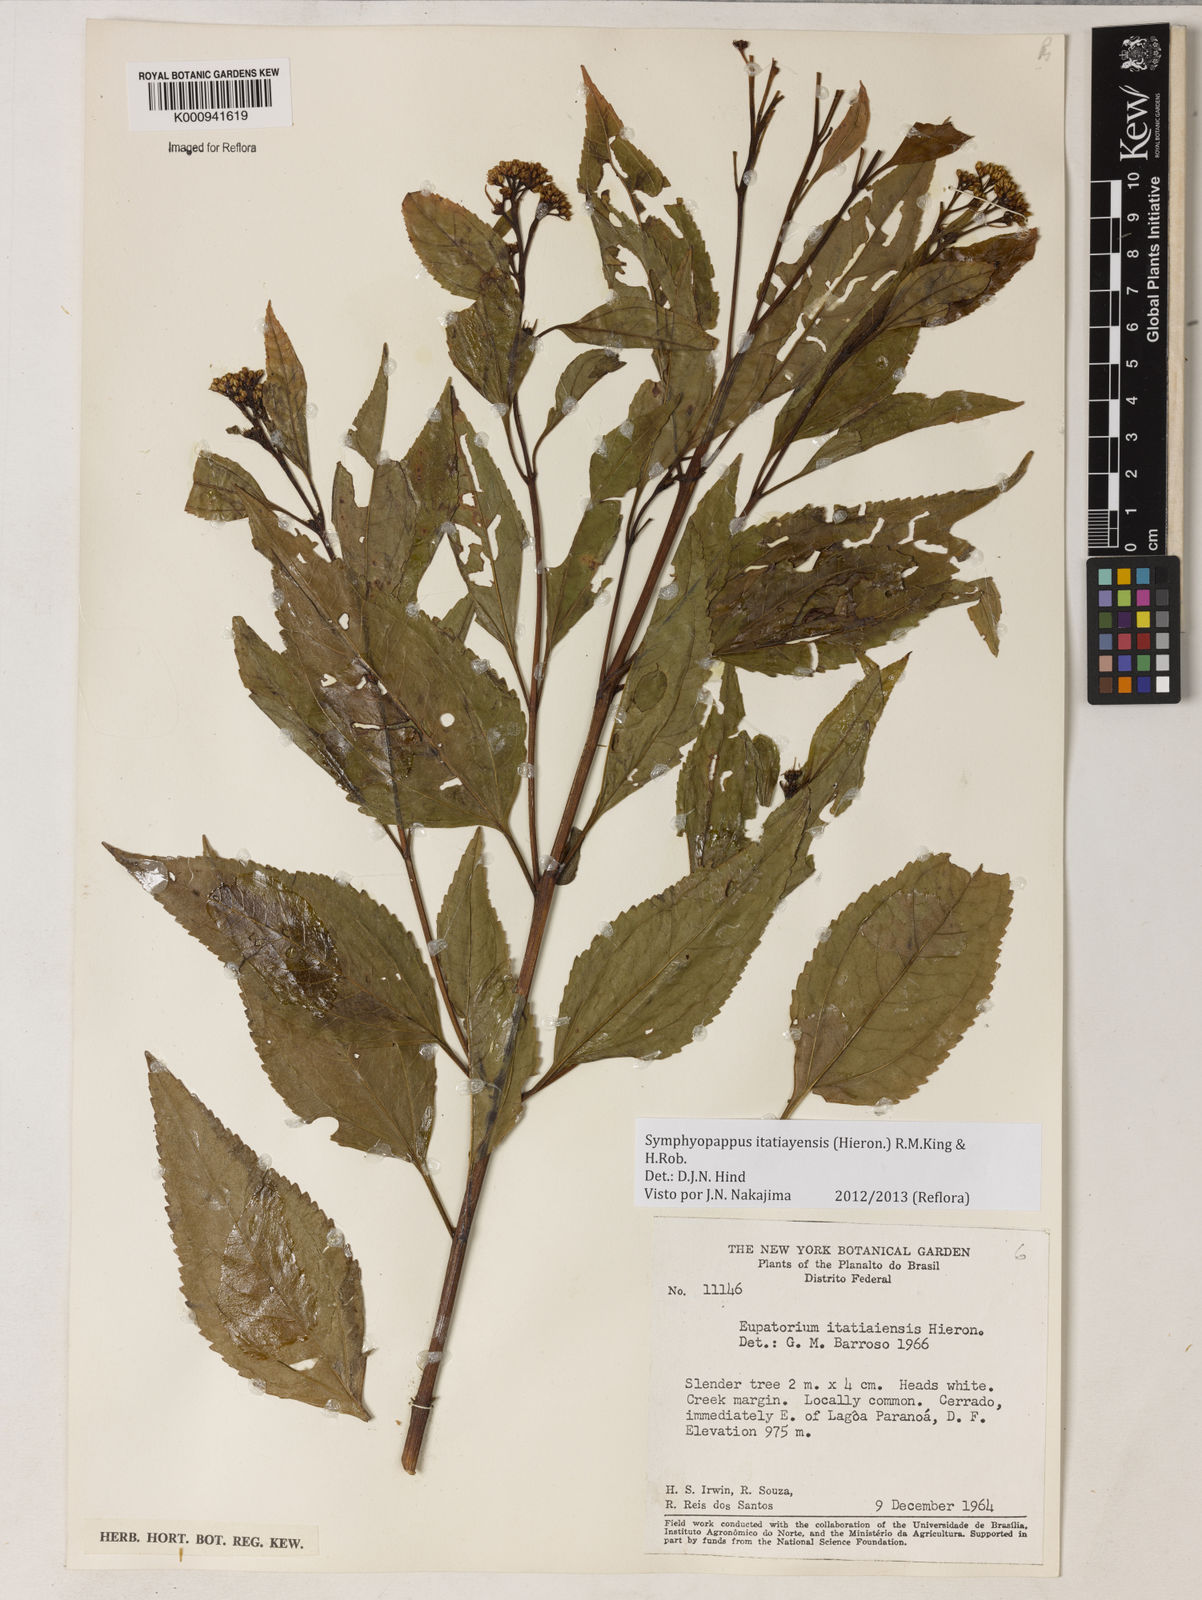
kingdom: Plantae
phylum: Tracheophyta
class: Magnoliopsida
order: Asterales
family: Asteraceae
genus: Symphyopappus
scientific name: Symphyopappus itatiayensis
